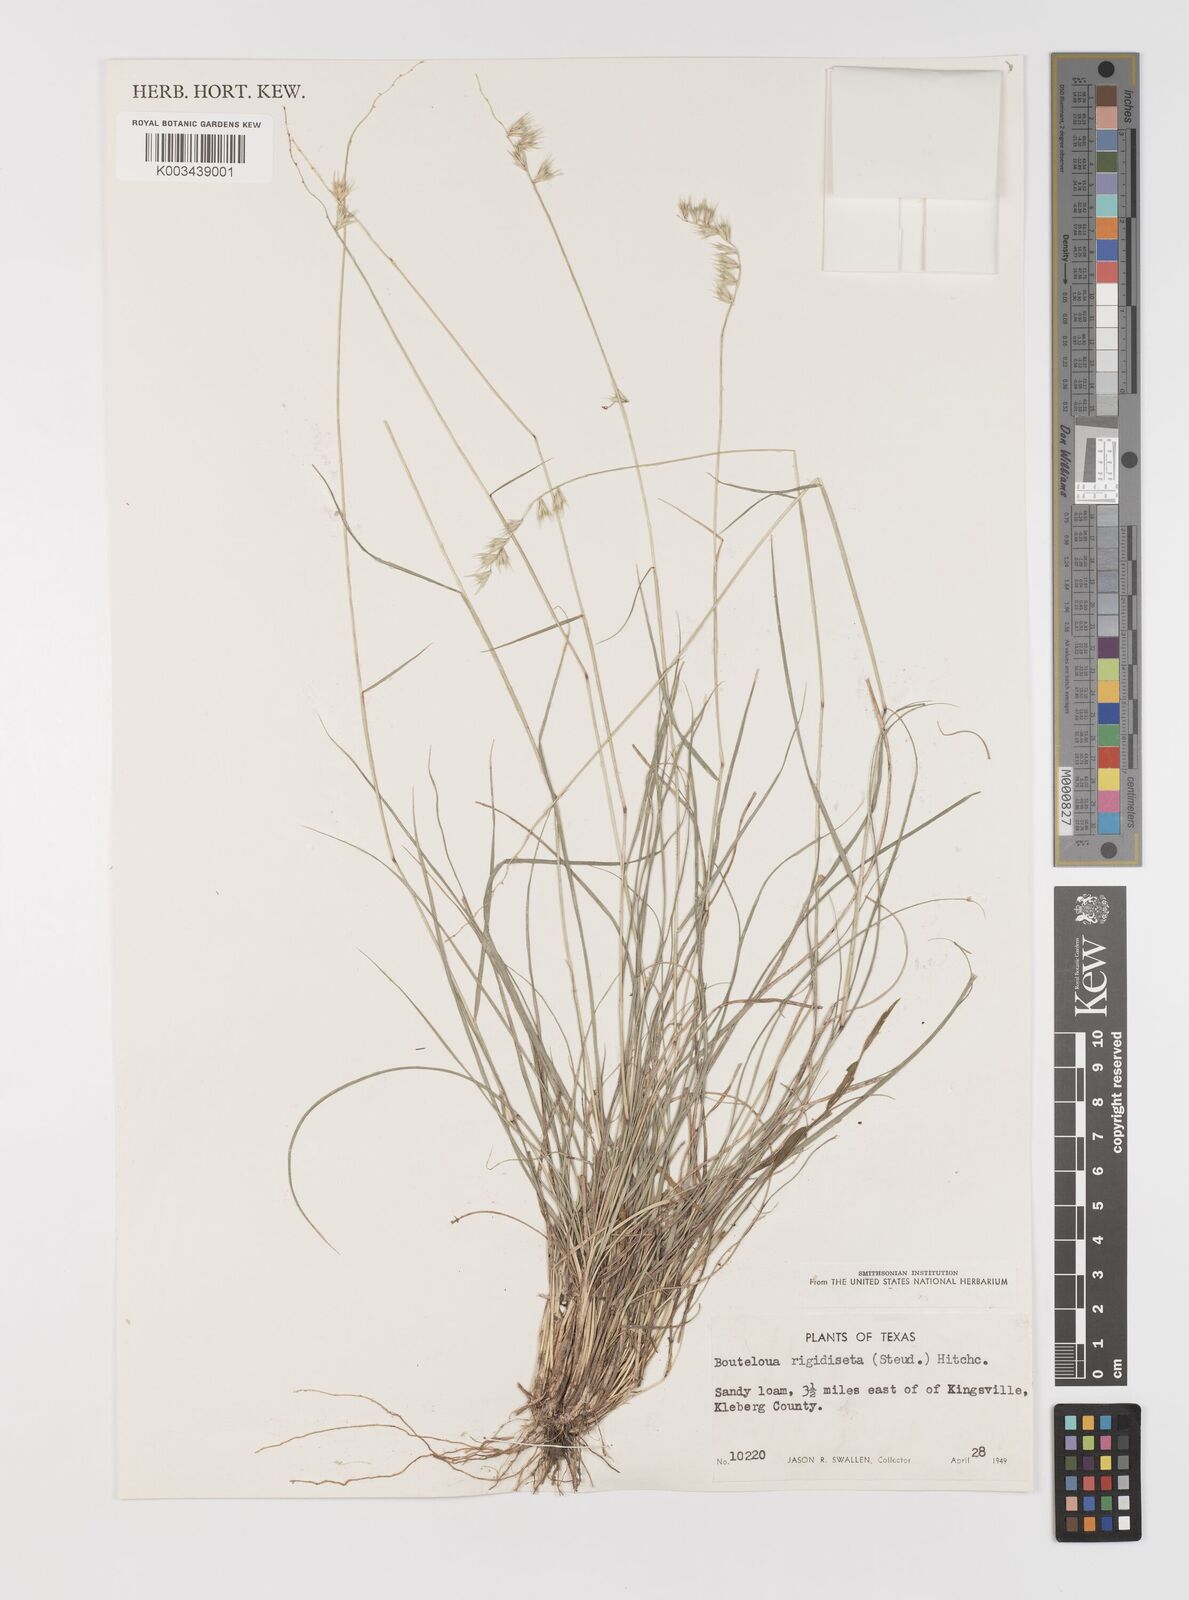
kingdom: Plantae
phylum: Tracheophyta
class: Liliopsida
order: Poales
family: Poaceae
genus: Bouteloua
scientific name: Bouteloua rigidiseta
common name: Texas grama
